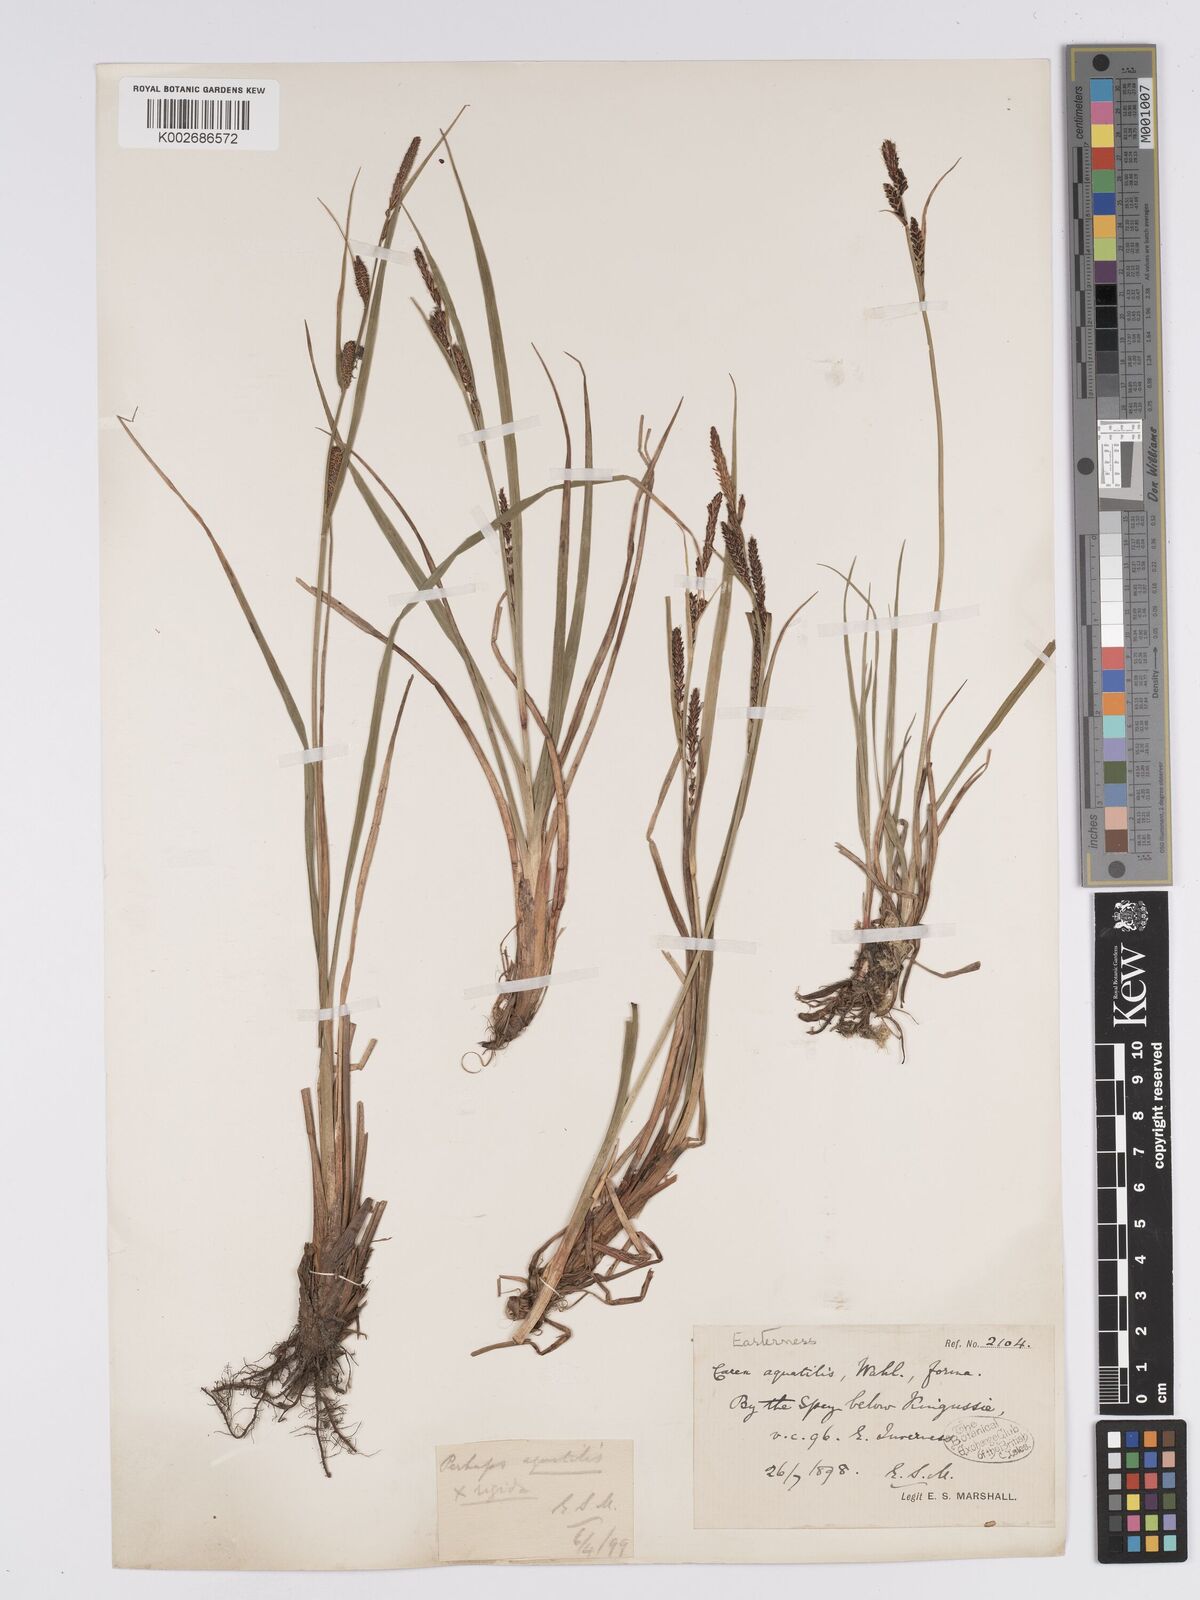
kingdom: Plantae
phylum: Tracheophyta
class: Liliopsida
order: Poales
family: Cyperaceae
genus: Carex
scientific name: Carex aquatilis
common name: Water sedge
